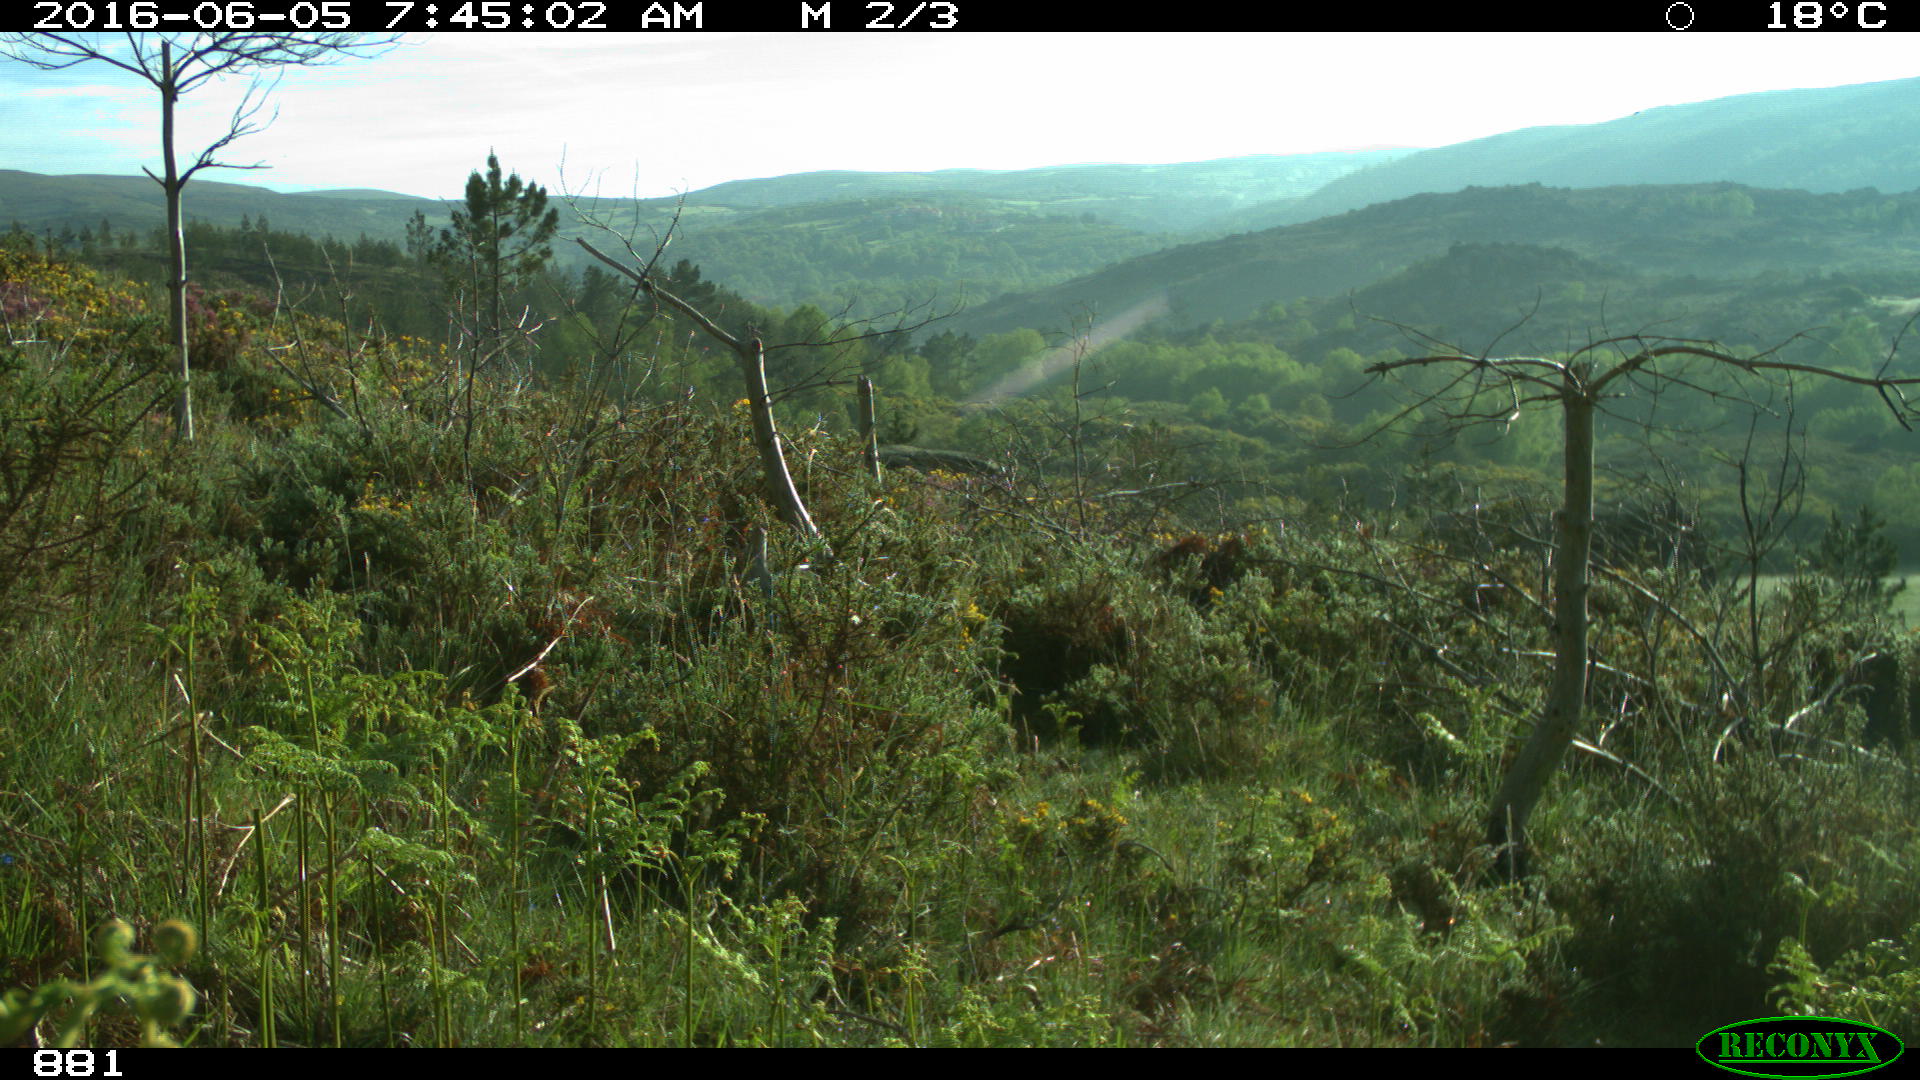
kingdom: Animalia
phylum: Chordata
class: Mammalia
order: Artiodactyla
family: Cervidae
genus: Capreolus
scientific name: Capreolus capreolus
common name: Western roe deer
